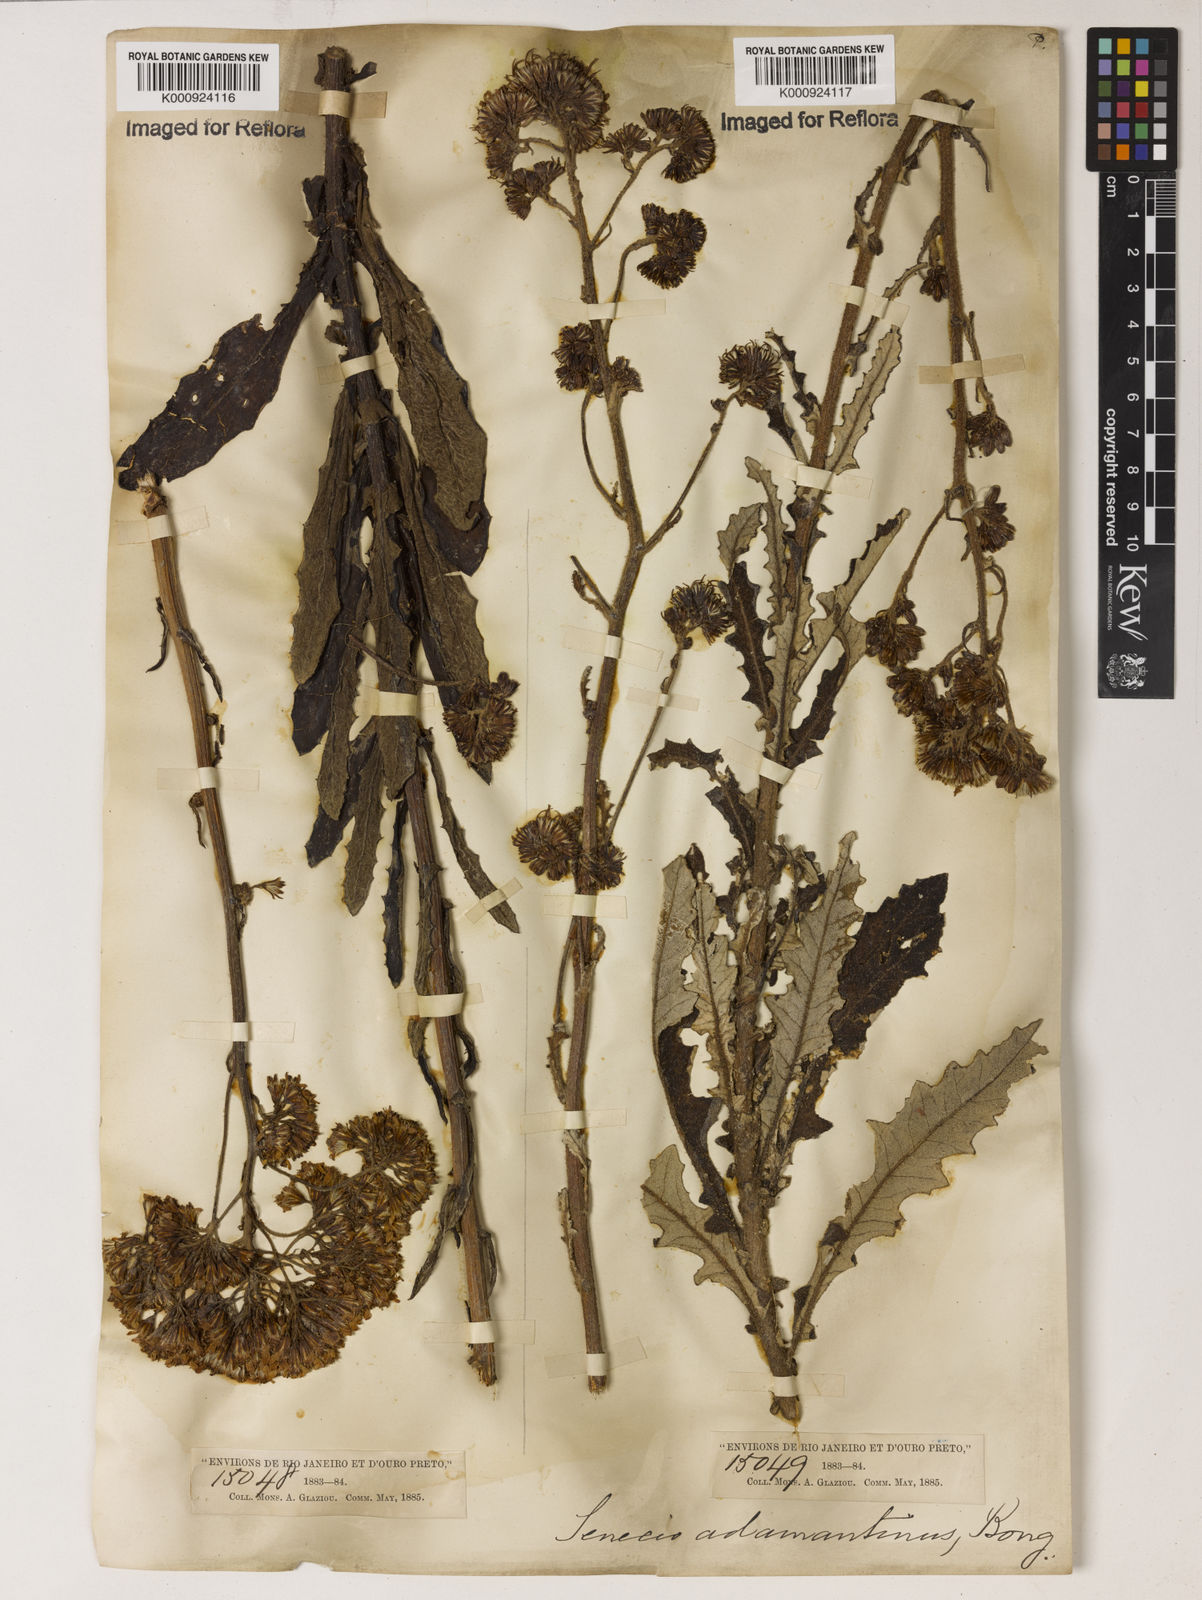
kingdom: Plantae
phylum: Tracheophyta
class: Magnoliopsida
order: Asterales
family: Asteraceae
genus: Senecio
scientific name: Senecio
